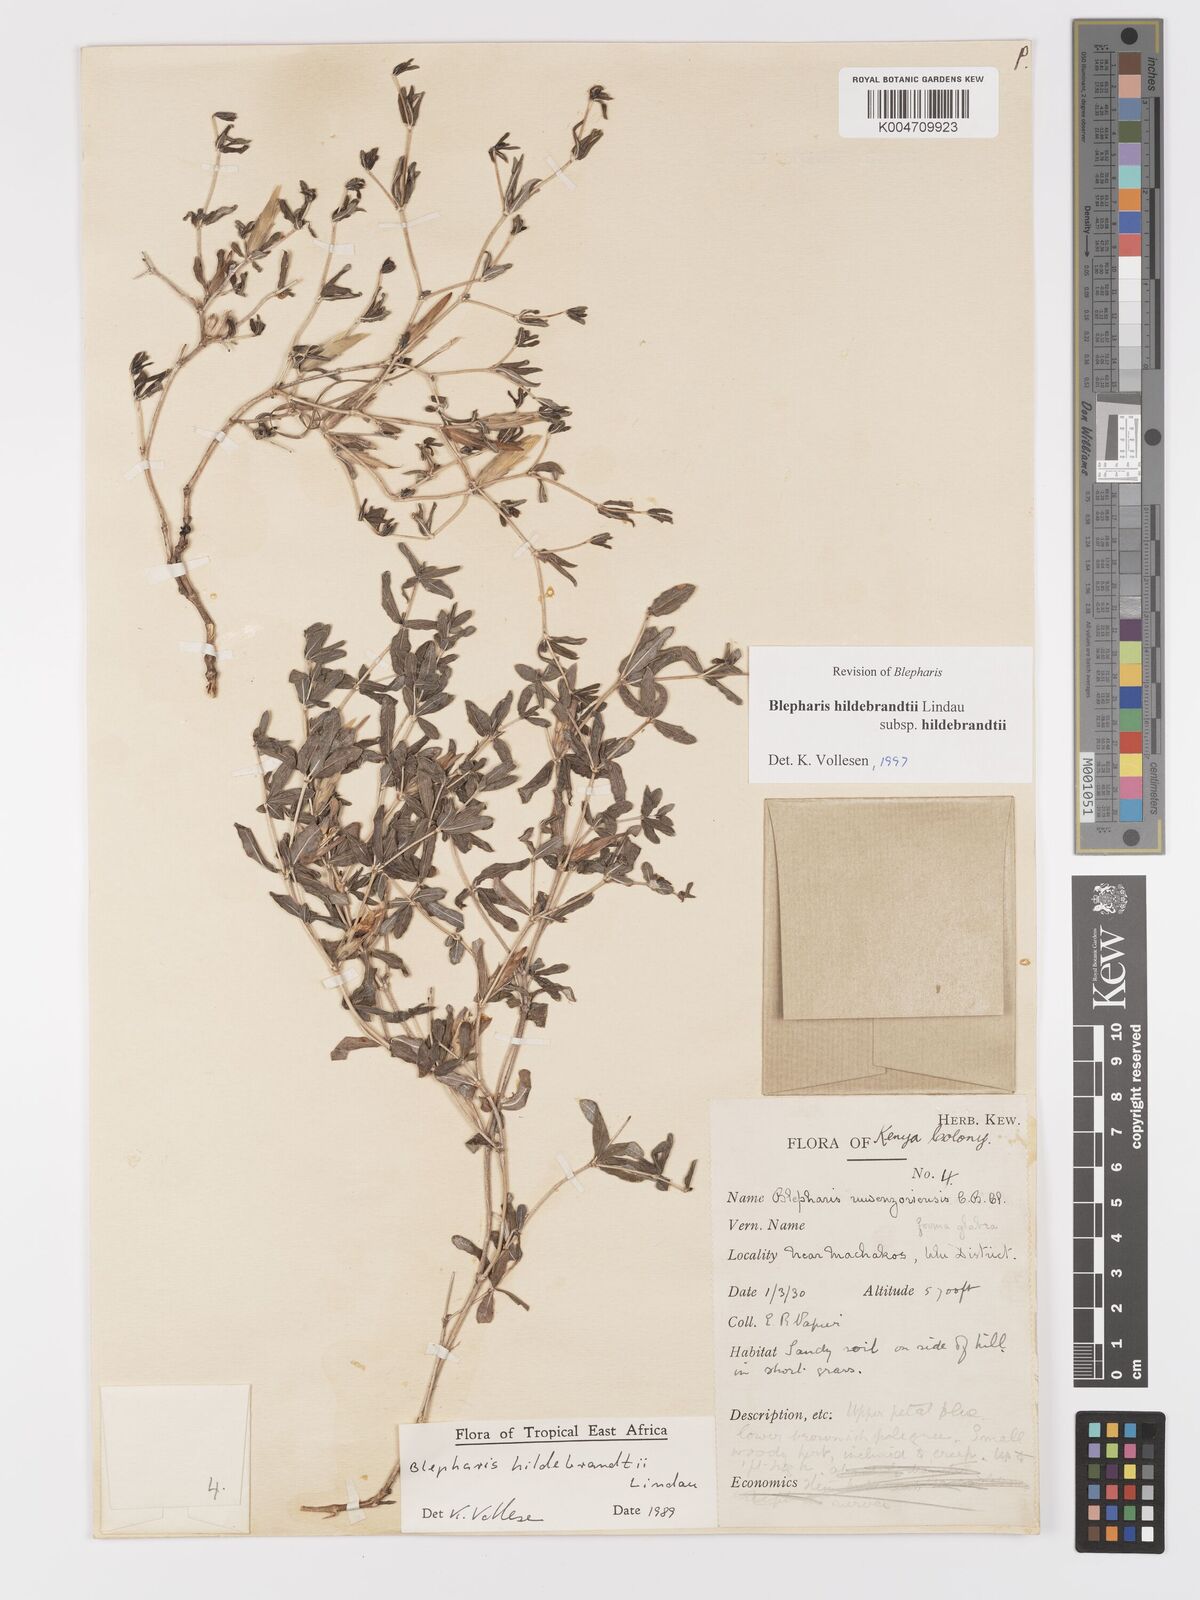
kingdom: Plantae
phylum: Tracheophyta
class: Magnoliopsida
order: Lamiales
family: Acanthaceae
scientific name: Acanthaceae
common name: Acanthaceae
